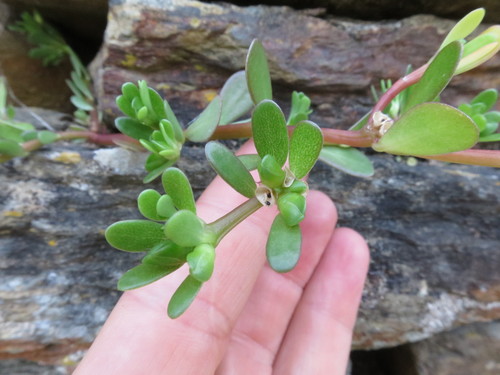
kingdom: Plantae
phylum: Tracheophyta
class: Magnoliopsida
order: Caryophyllales
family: Portulacaceae
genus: Portulaca
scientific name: Portulaca oleracea
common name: Common purslane
